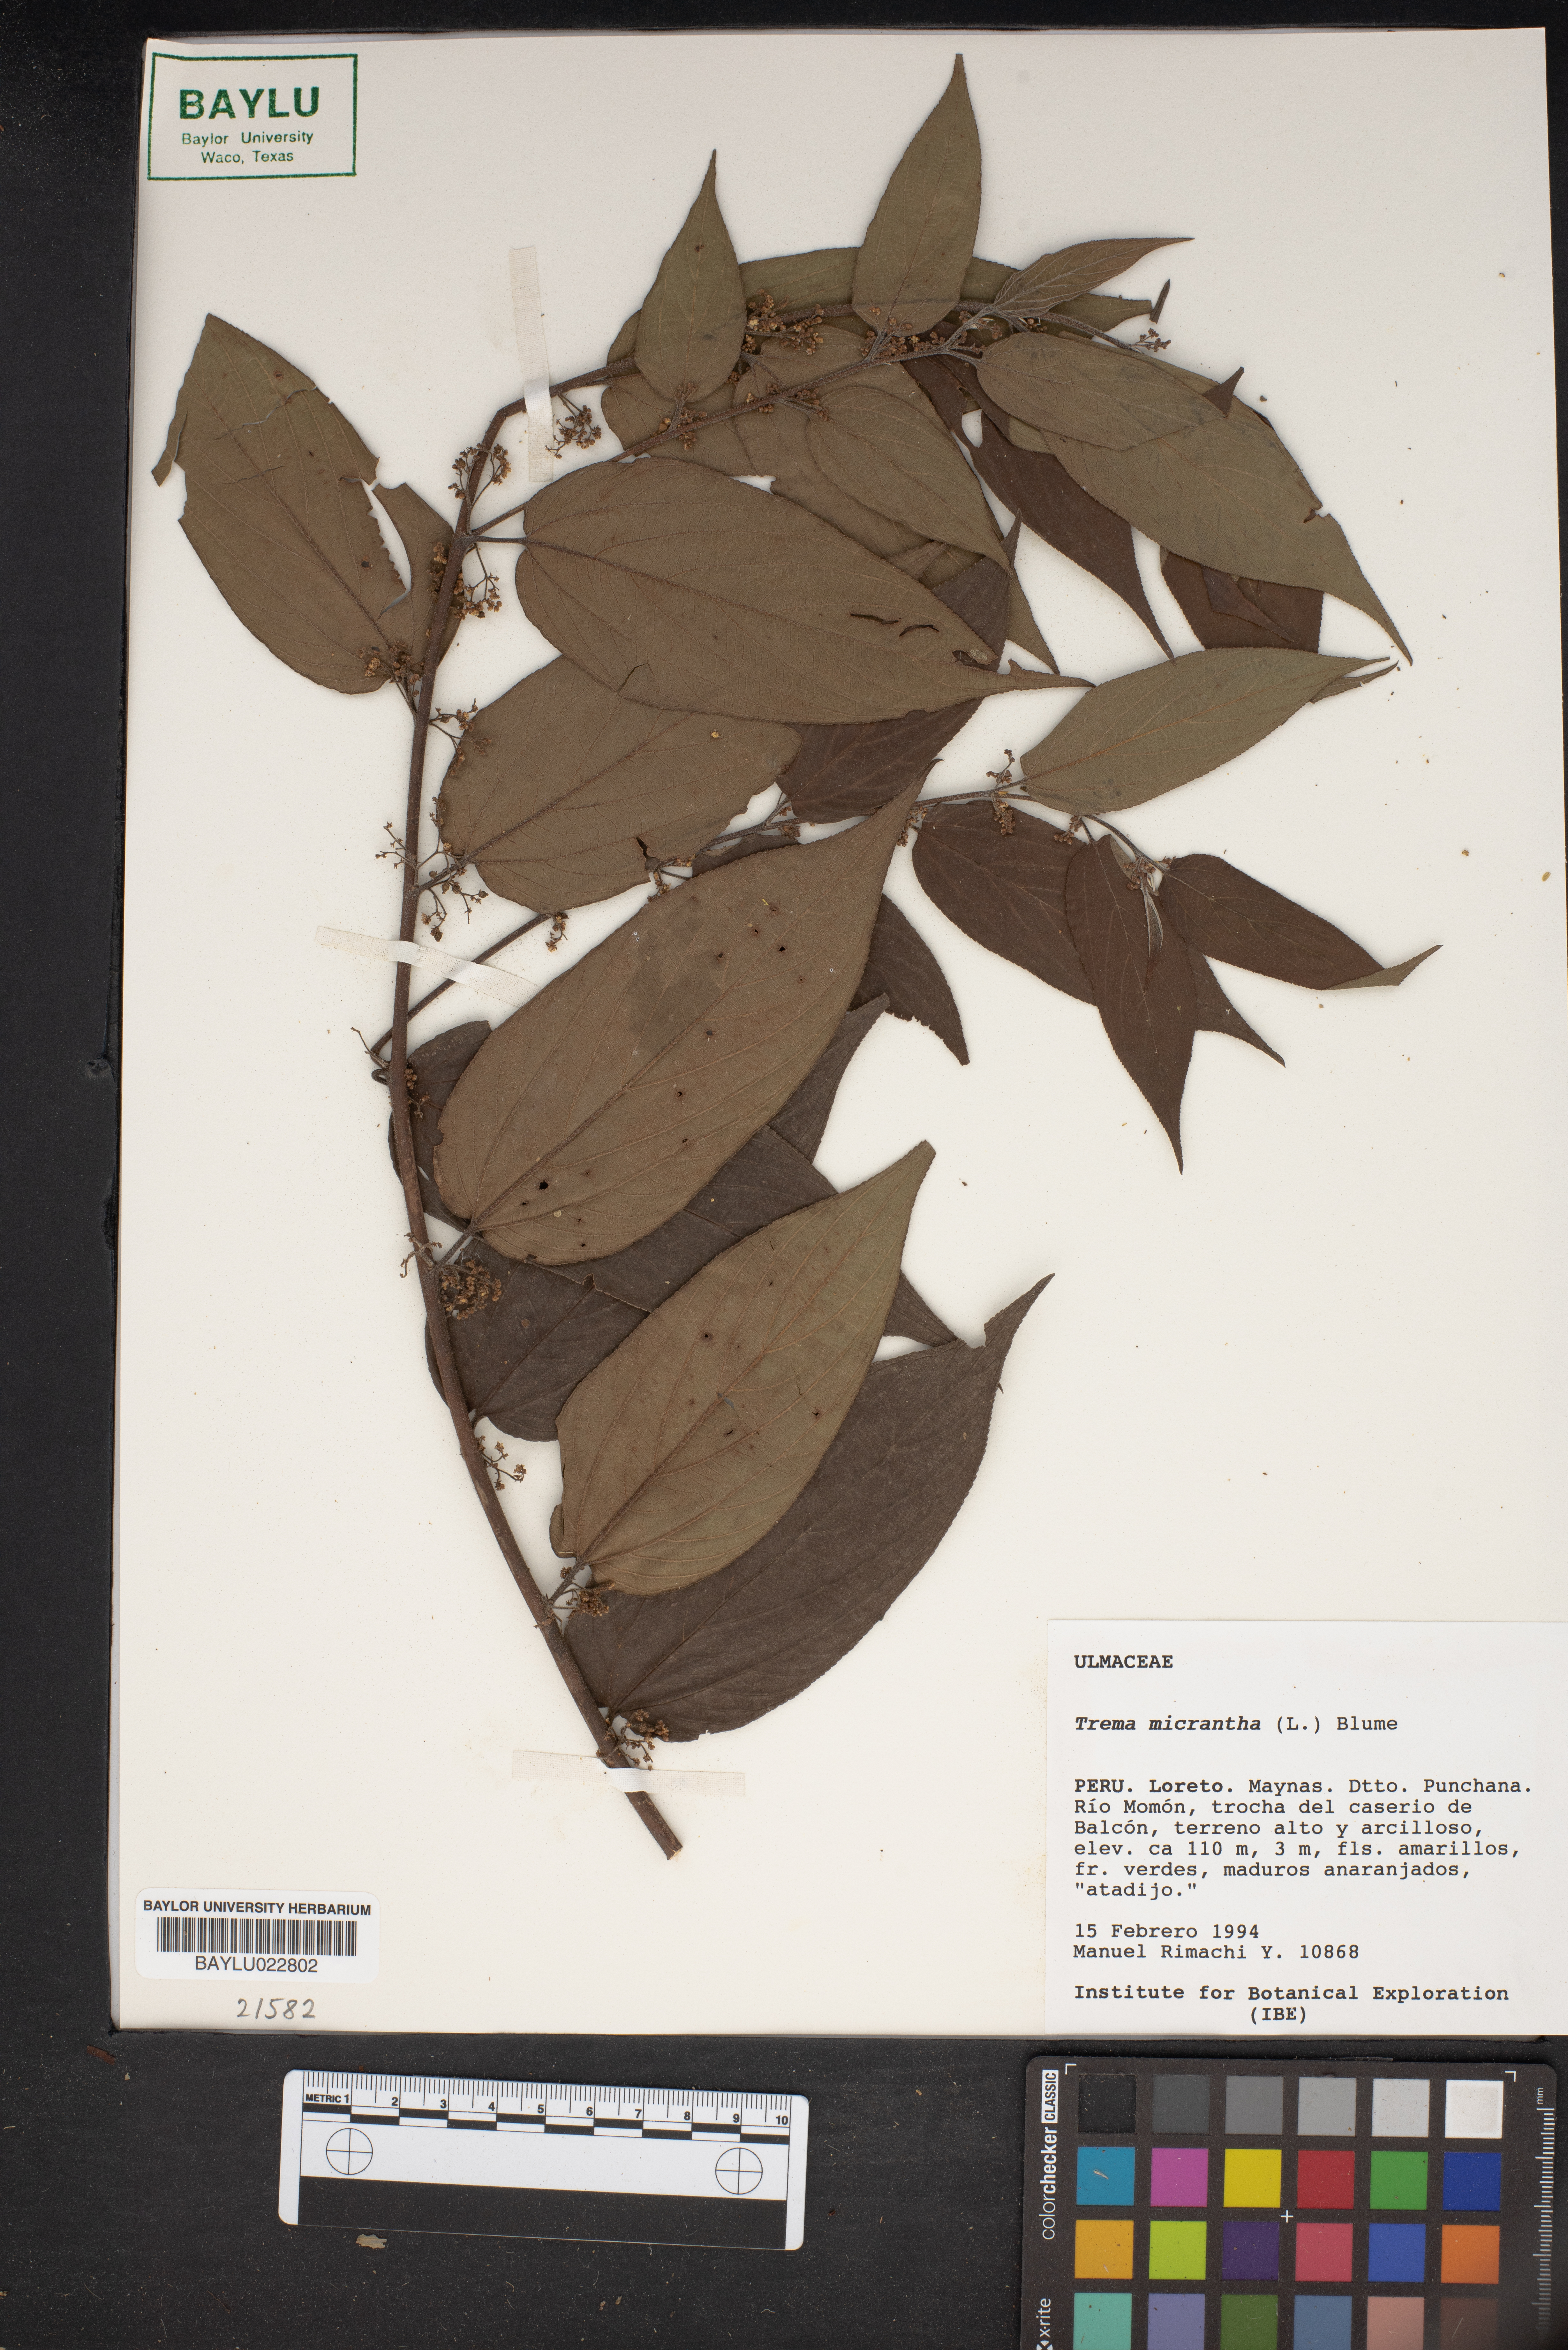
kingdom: Plantae
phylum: Tracheophyta
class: Magnoliopsida
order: Rosales
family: Cannabaceae
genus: Trema
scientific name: Trema micranthum
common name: Jamaican nettletree
